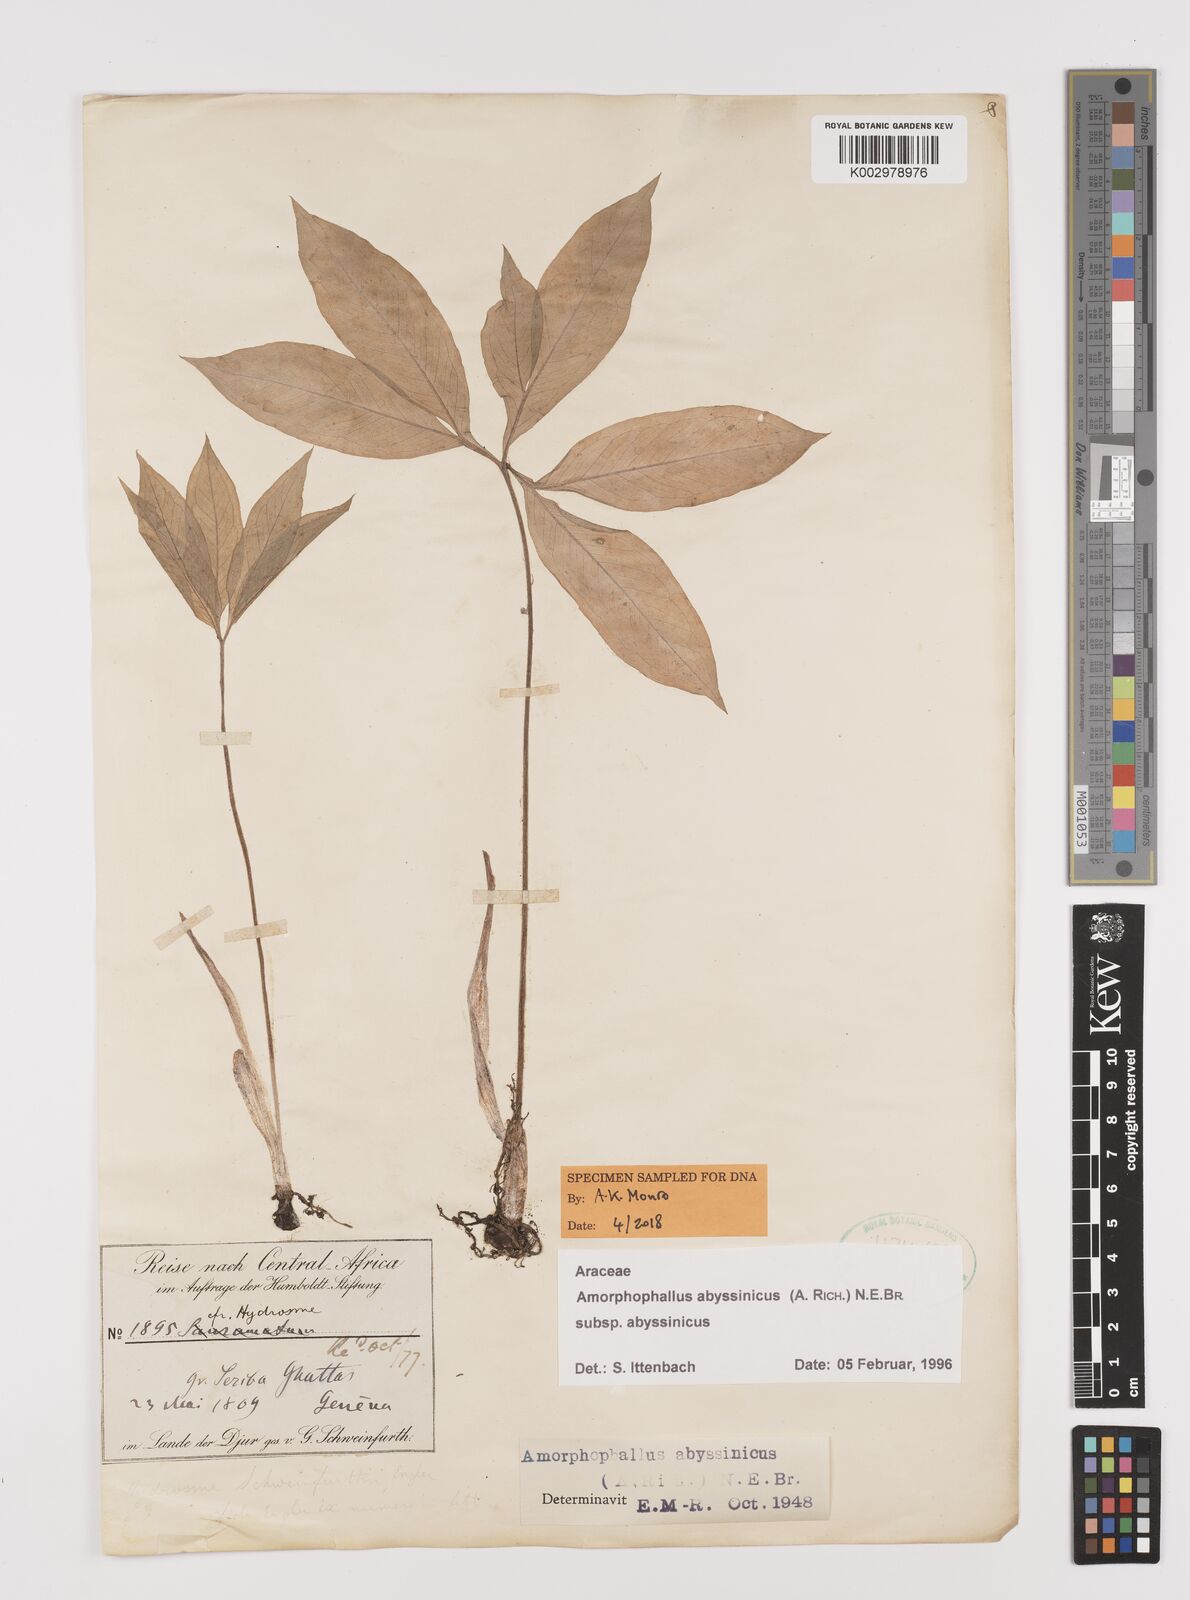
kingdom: Plantae
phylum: Tracheophyta
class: Liliopsida
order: Alismatales
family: Araceae
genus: Amorphophallus
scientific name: Amorphophallus abyssinicus
